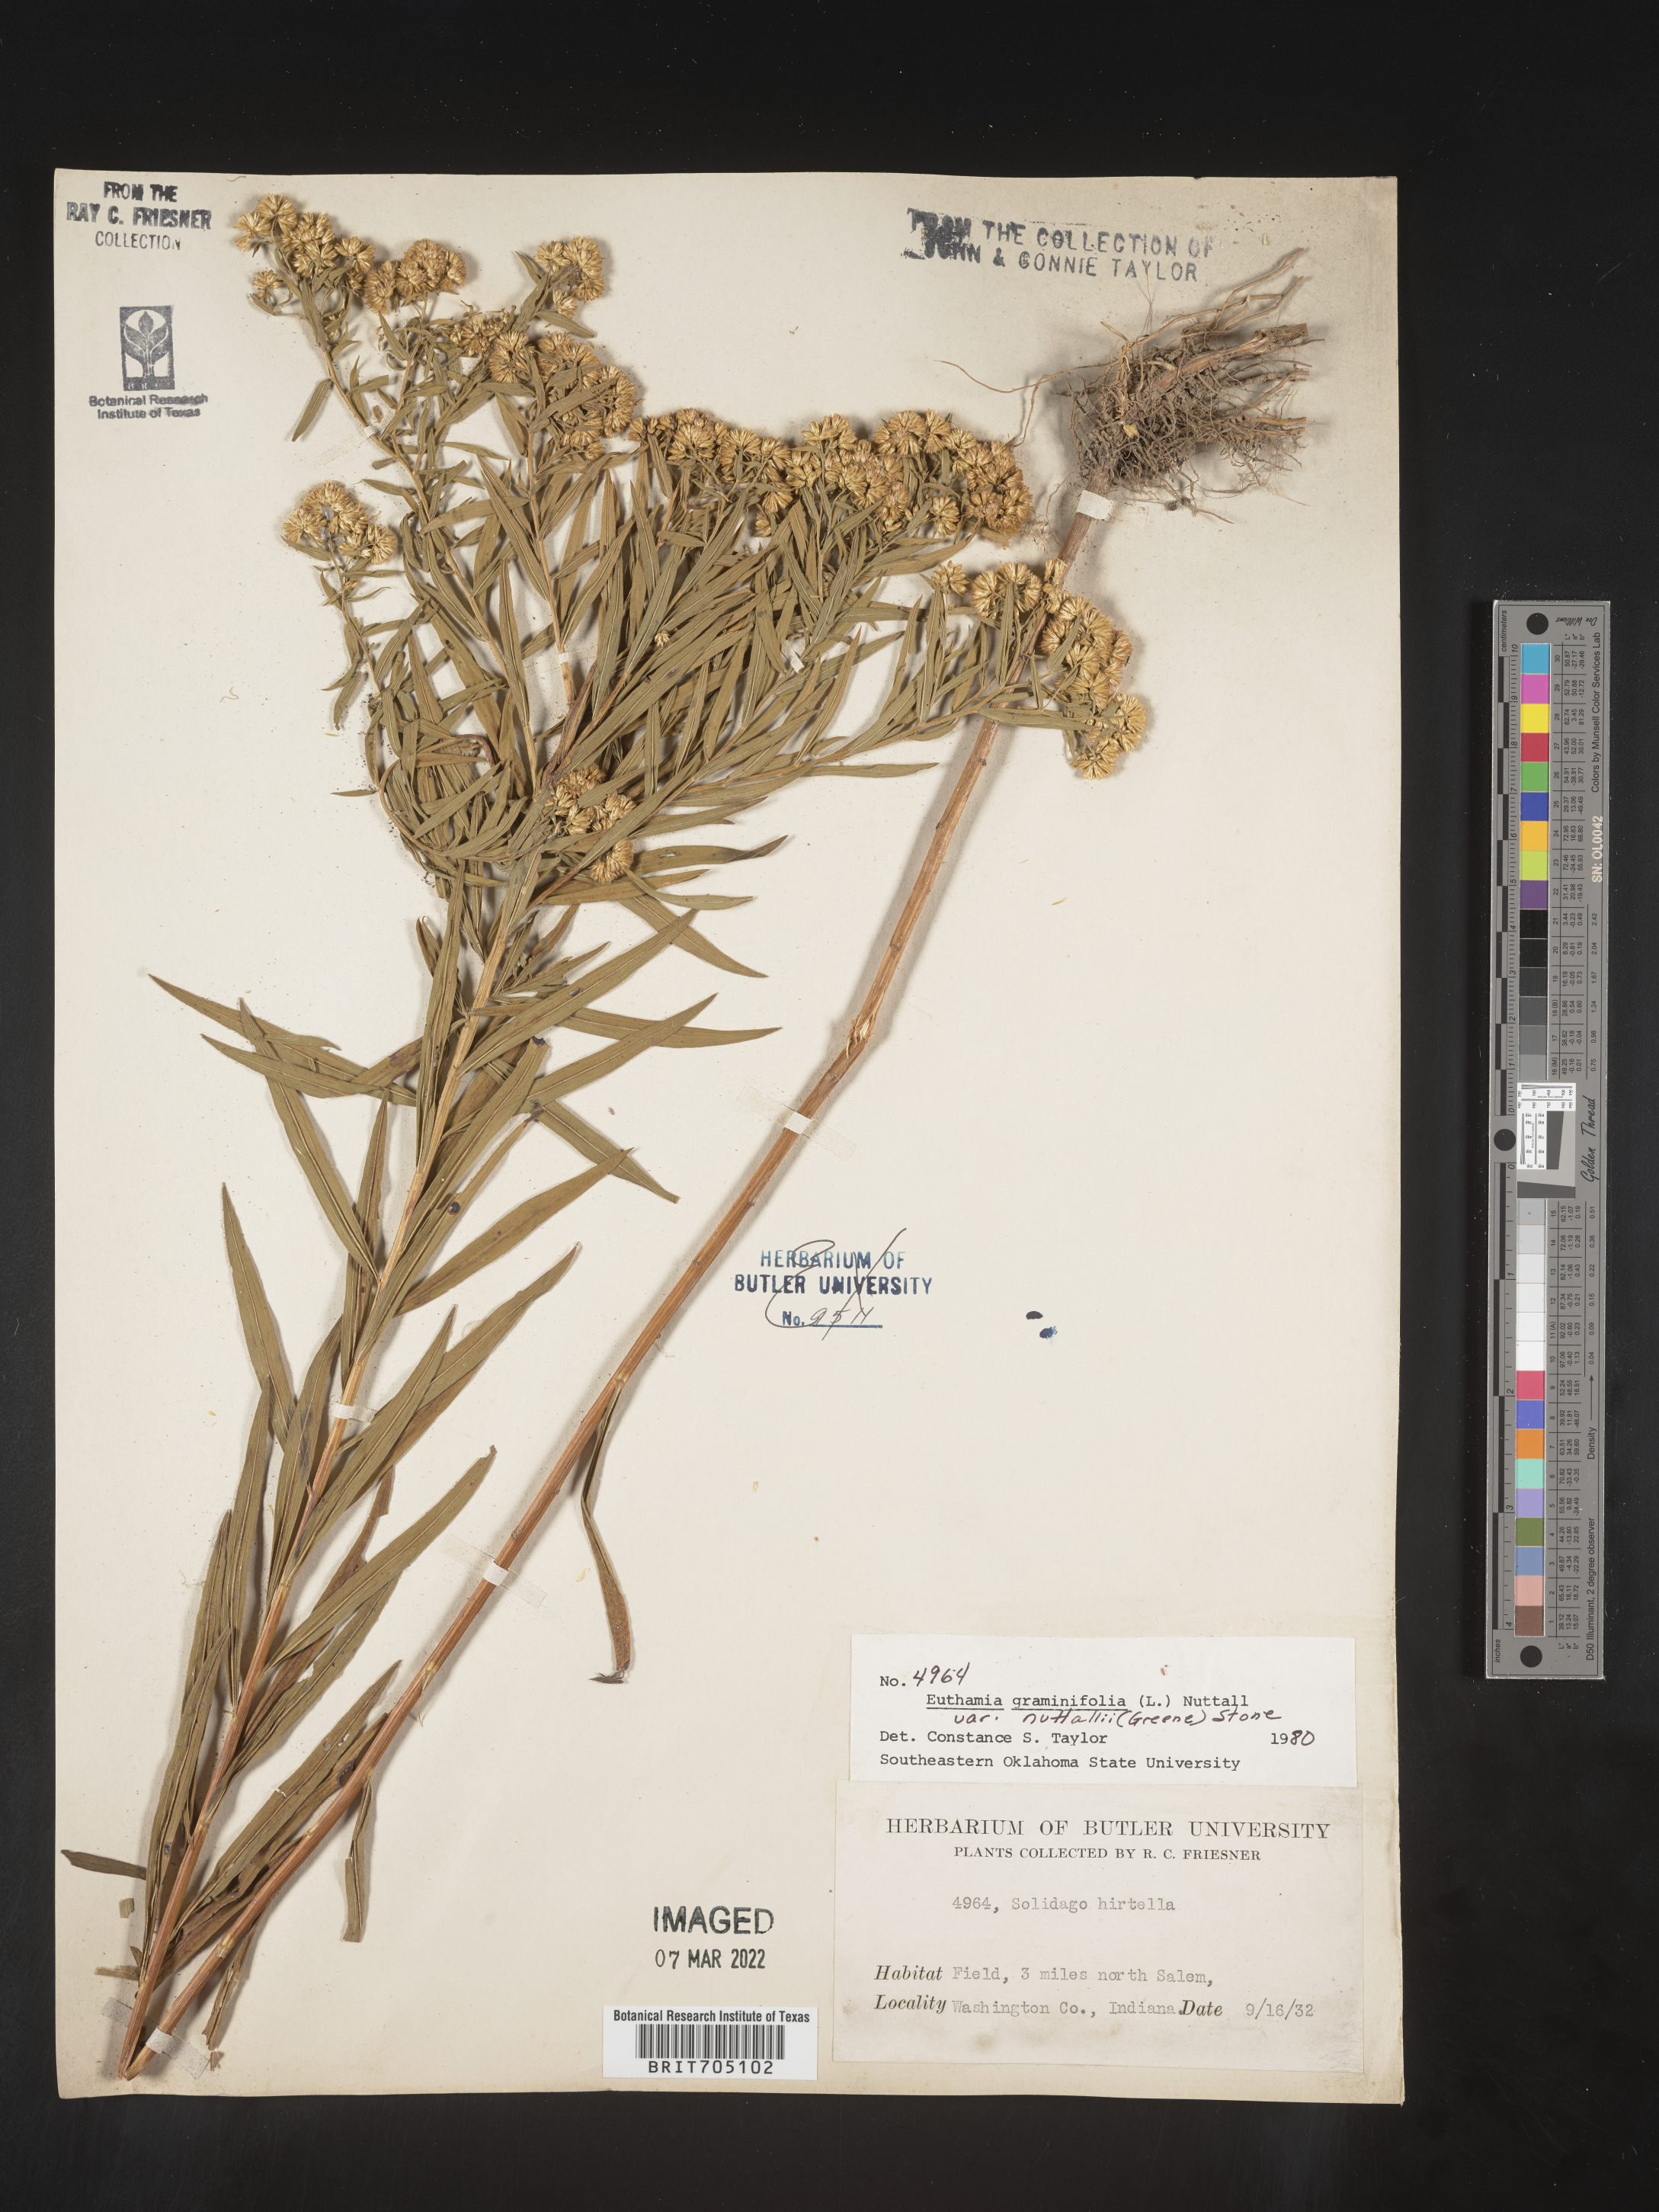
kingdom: Plantae
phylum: Tracheophyta
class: Magnoliopsida
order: Asterales
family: Asteraceae
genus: Euthamia
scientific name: Euthamia graminifolia
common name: Common goldentop
